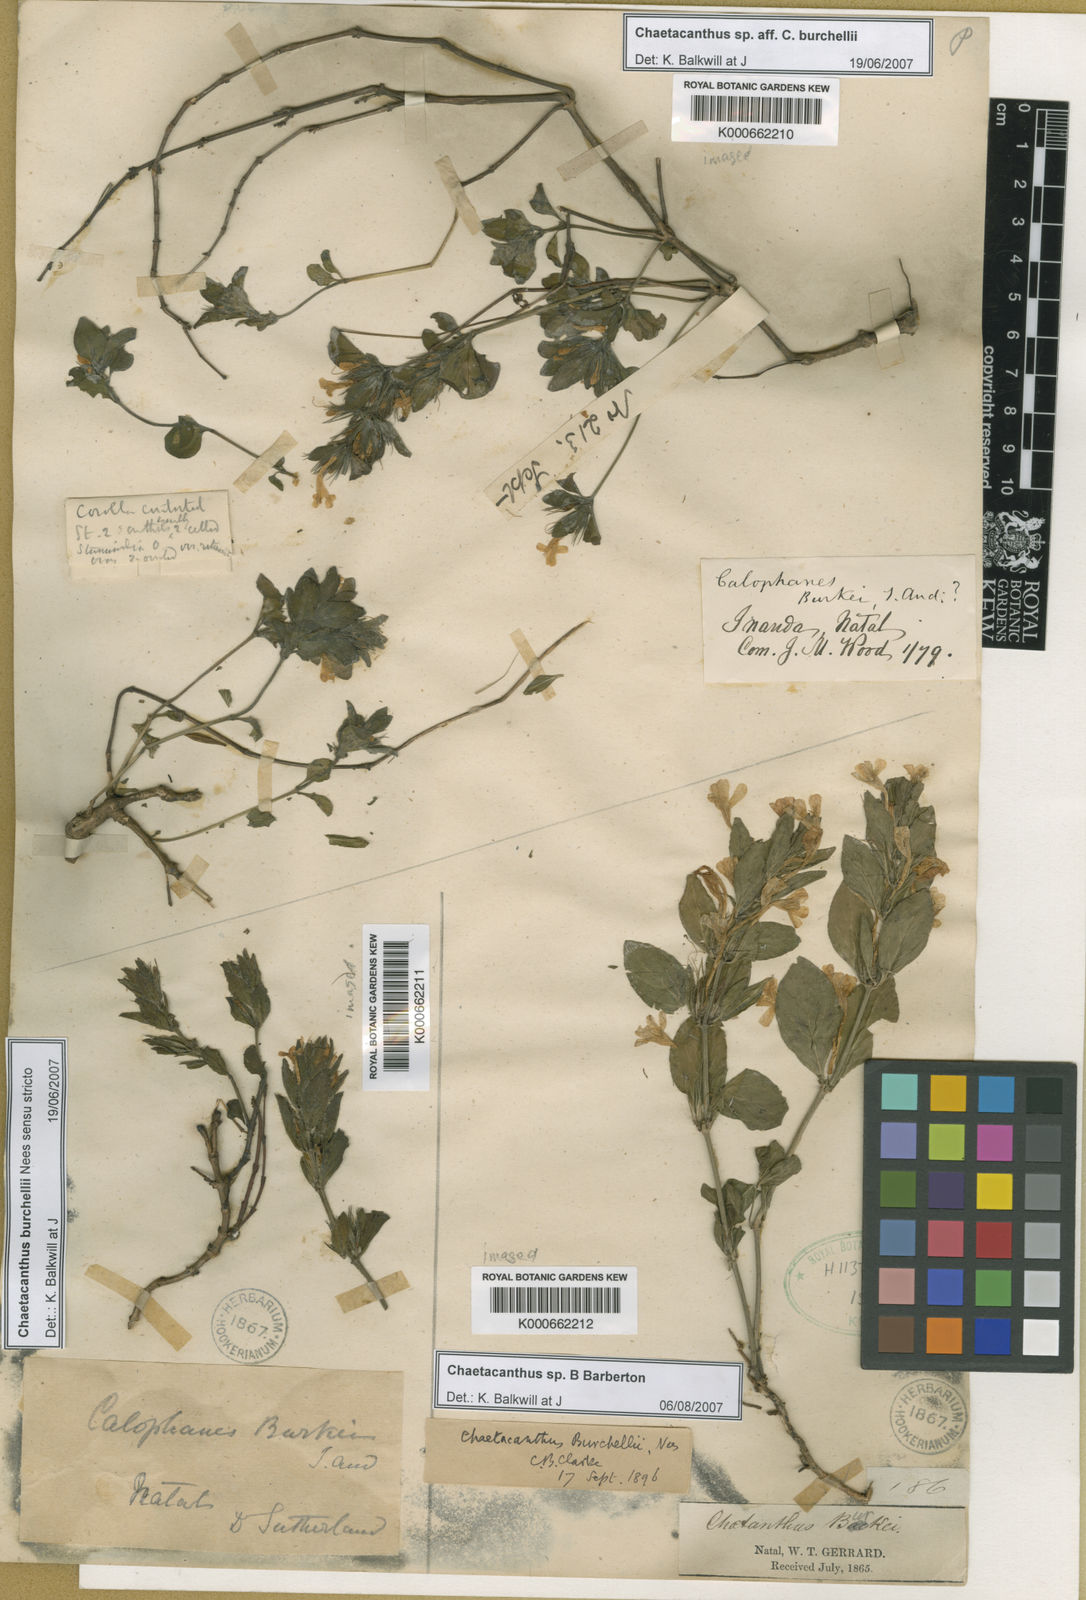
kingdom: Plantae
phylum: Tracheophyta
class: Magnoliopsida
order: Lamiales
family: Acanthaceae
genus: Dyschoriste
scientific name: Dyschoriste radicans
